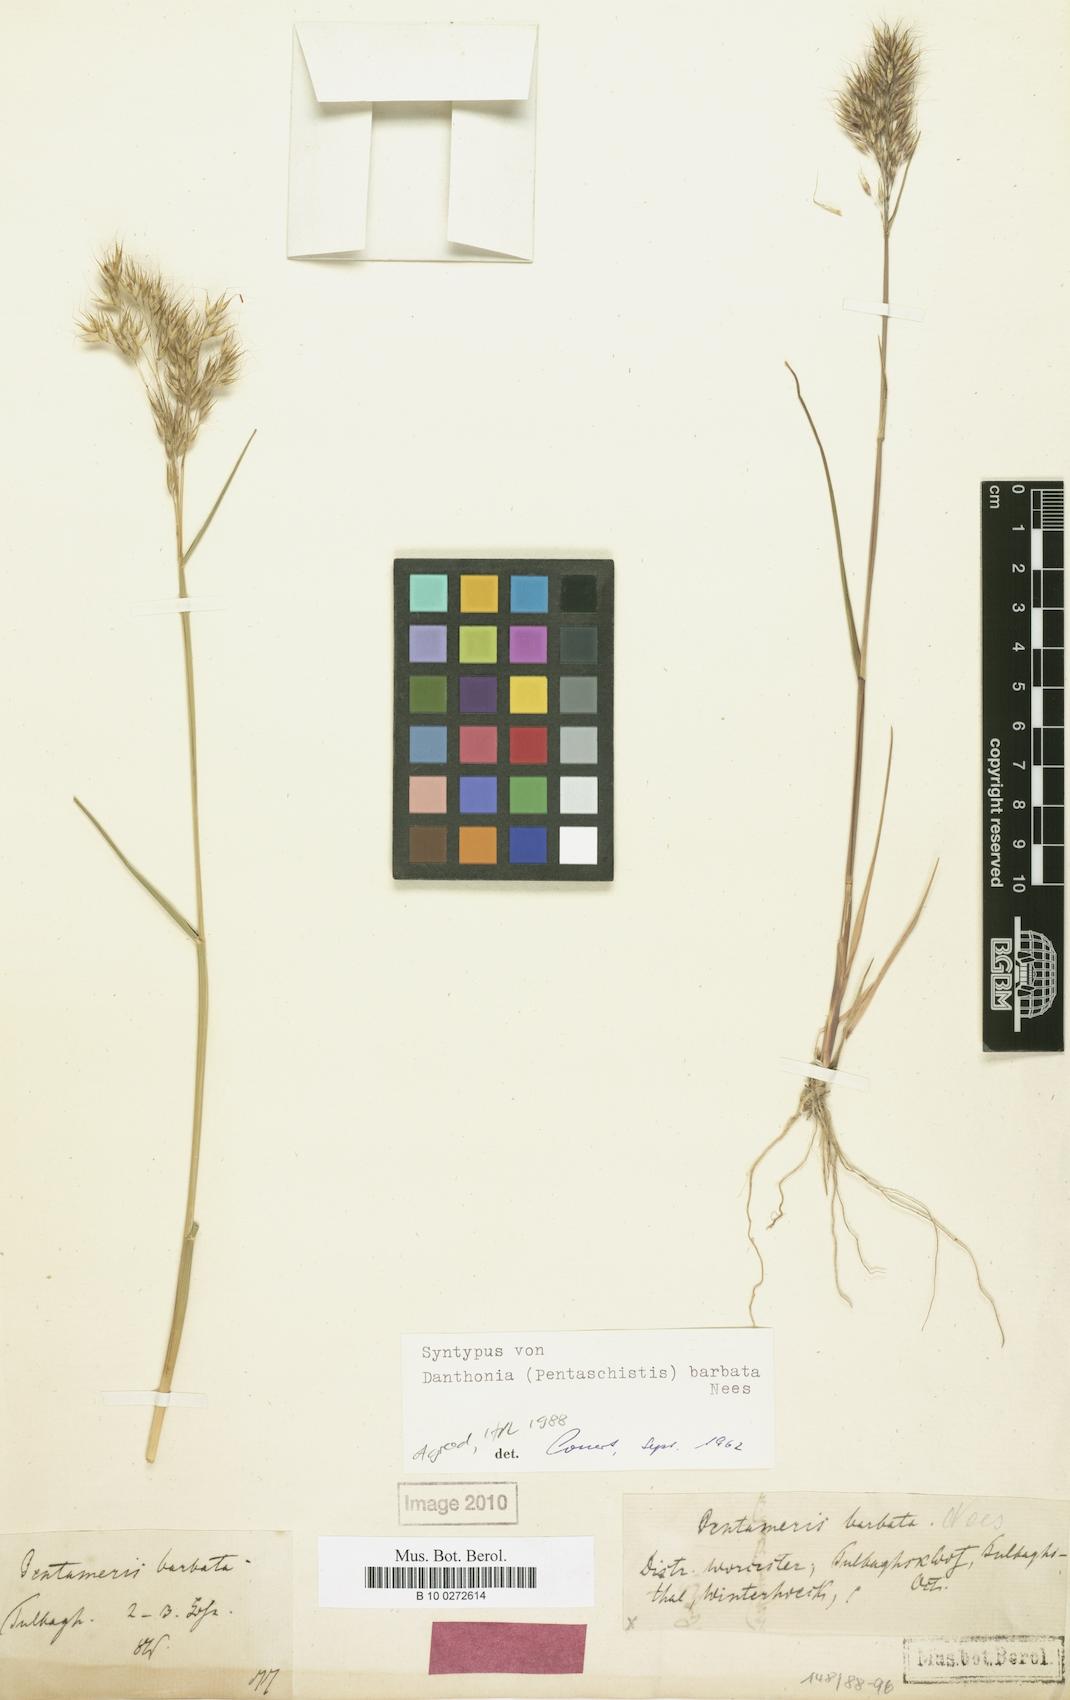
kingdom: Plantae
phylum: Tracheophyta
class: Liliopsida
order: Poales
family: Poaceae
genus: Pentameris
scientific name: Pentameris barbata
